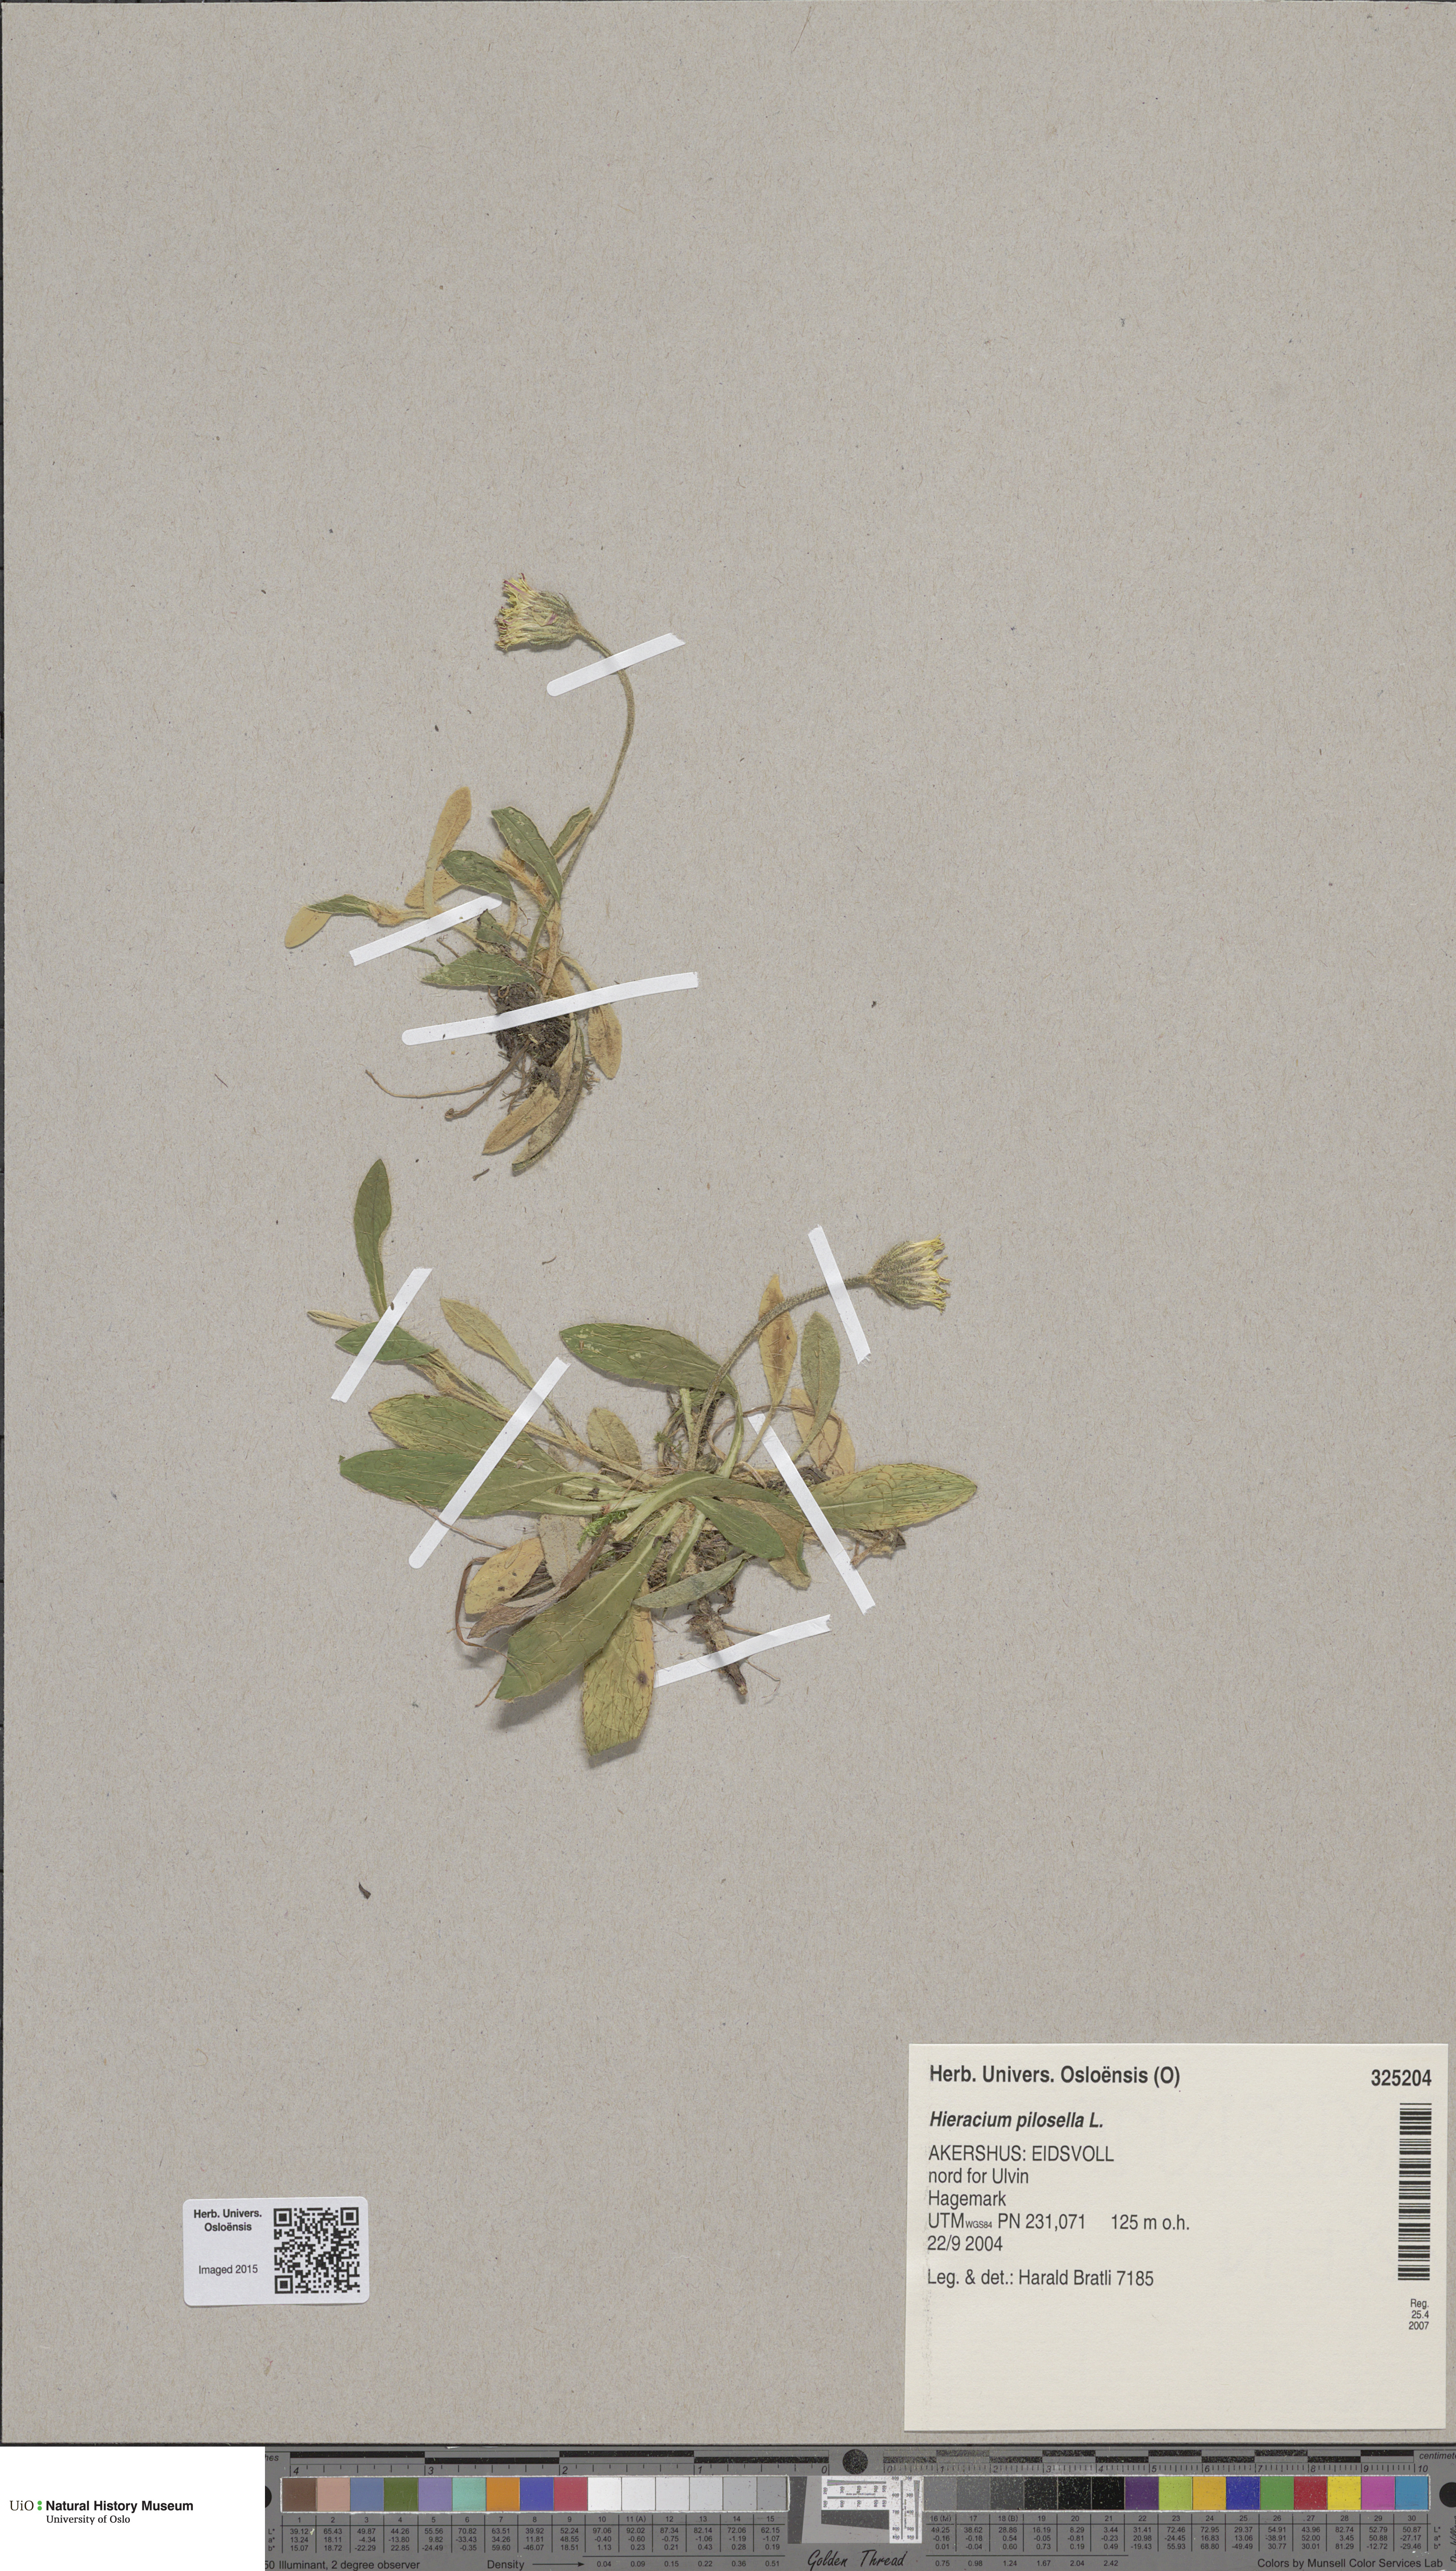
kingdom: Plantae
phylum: Tracheophyta
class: Magnoliopsida
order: Asterales
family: Asteraceae
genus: Pilosella
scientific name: Pilosella officinarum
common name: Mouse-ear hawkweed
